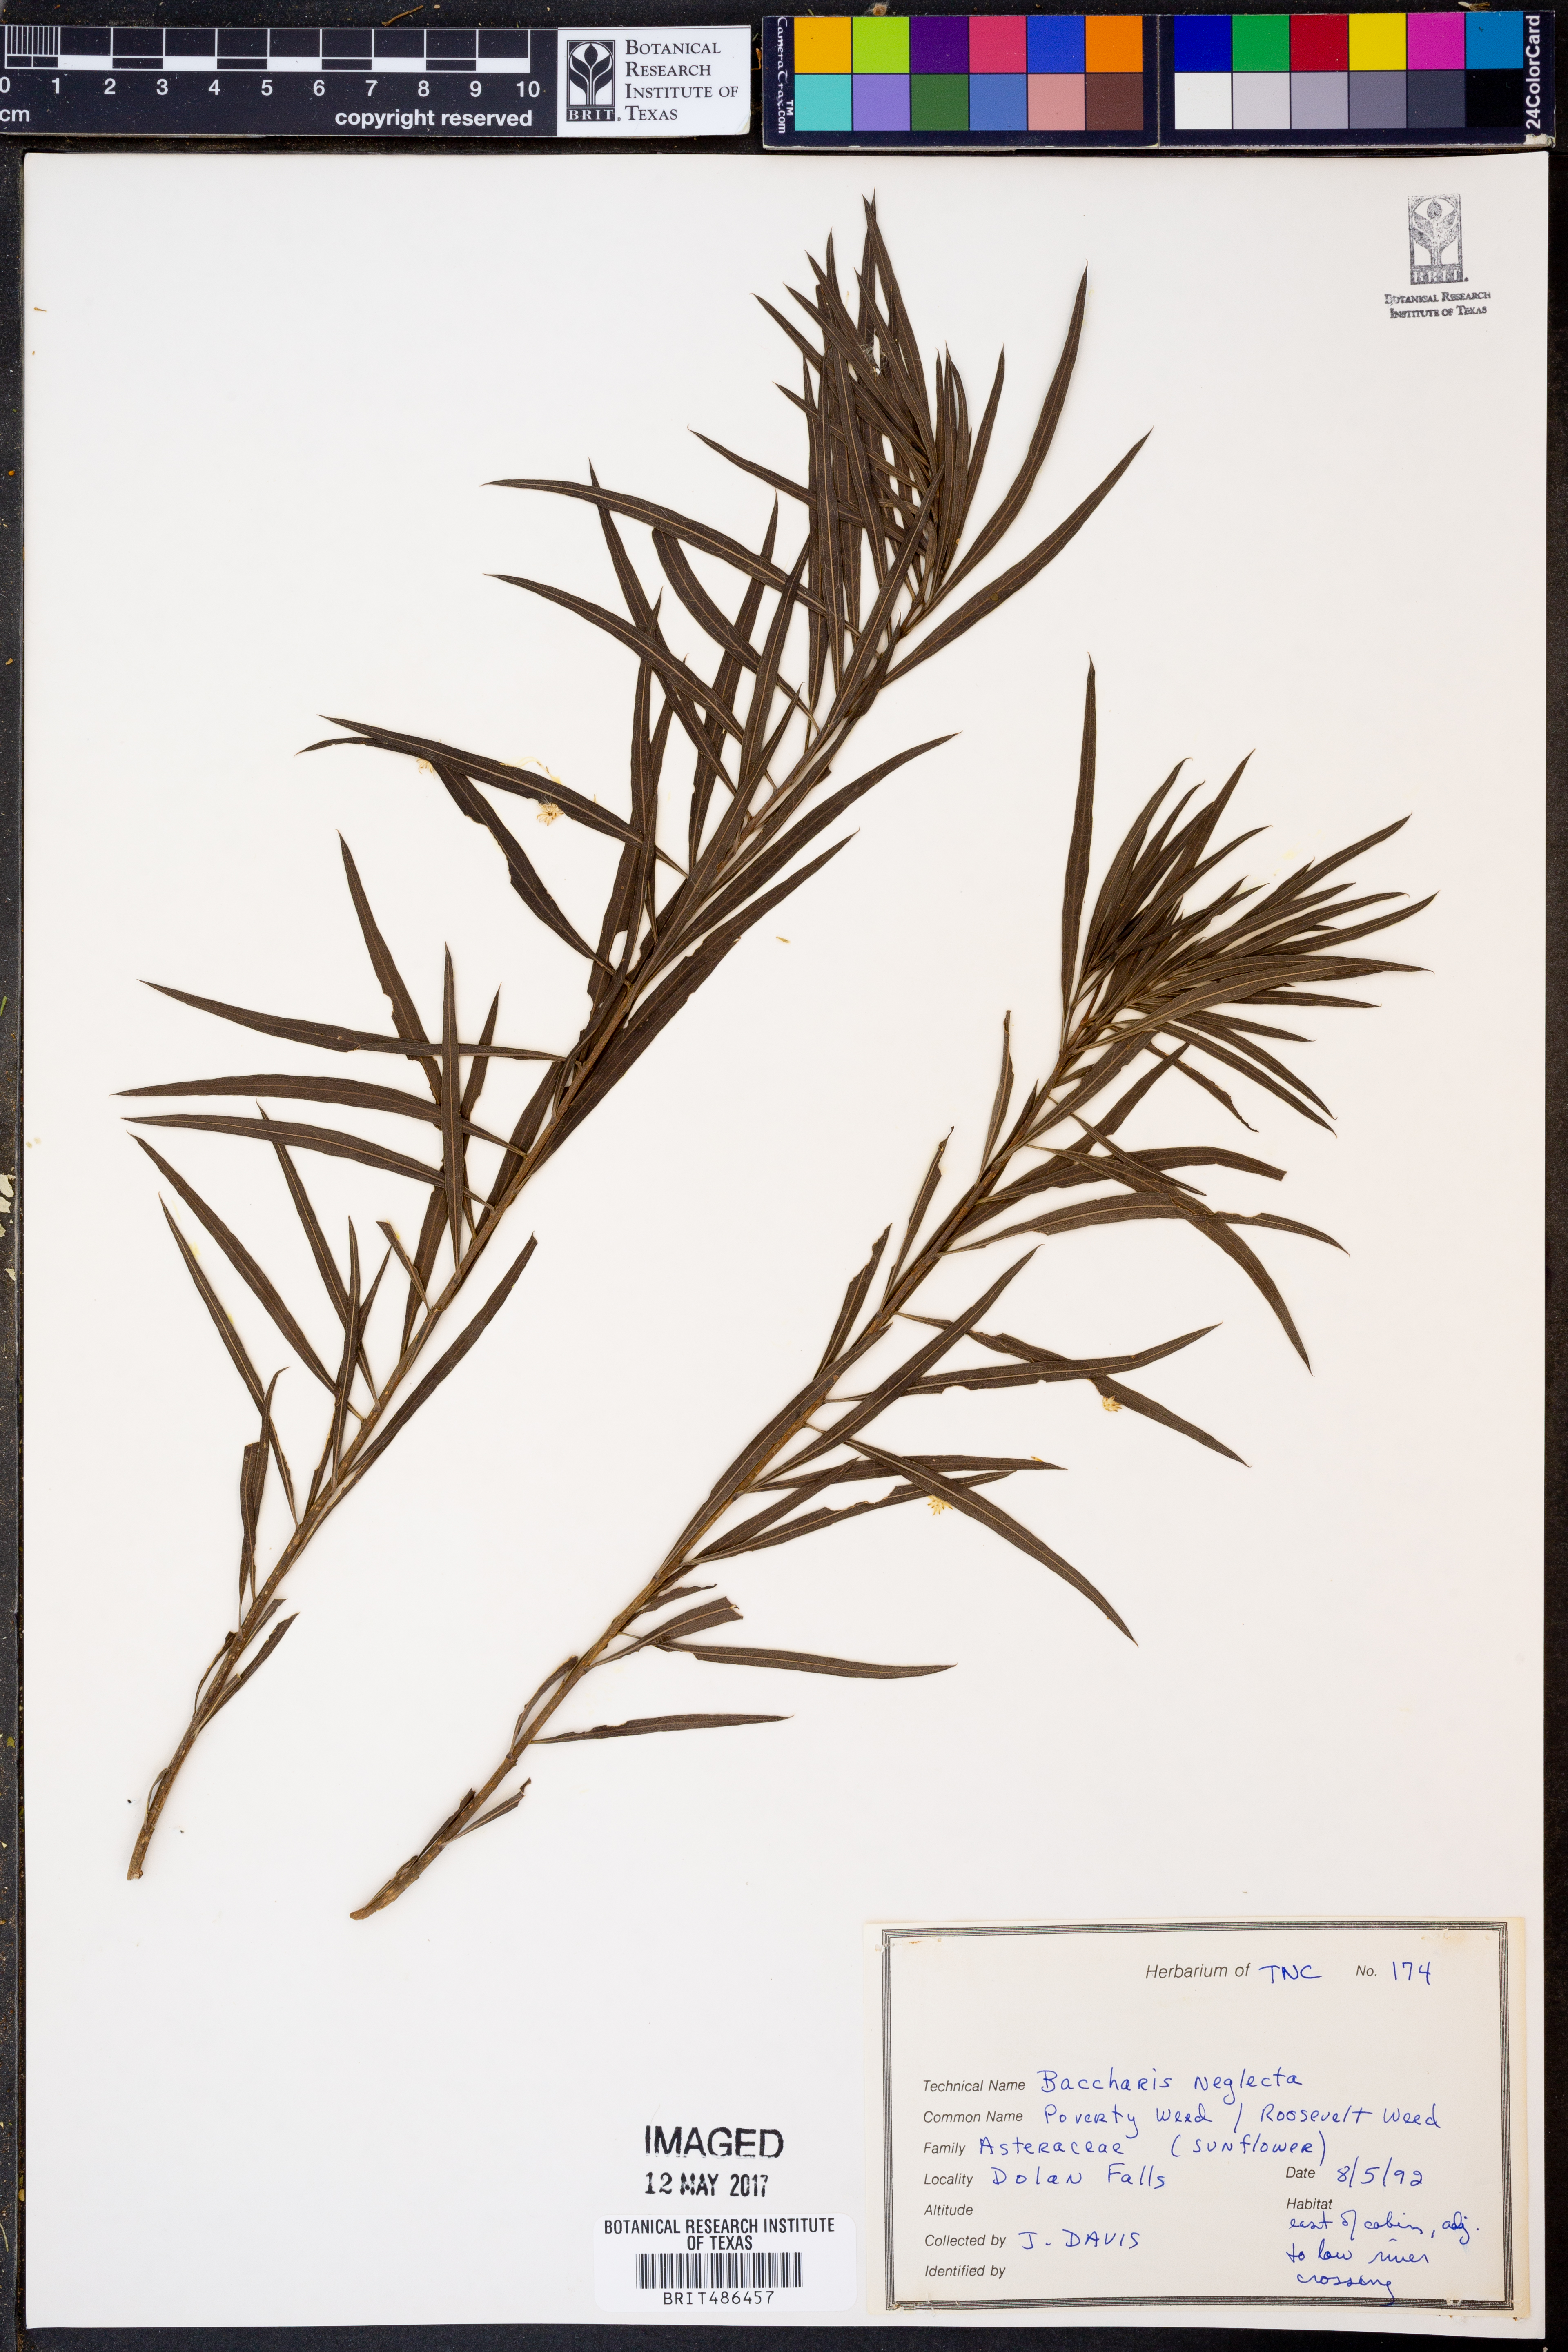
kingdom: Plantae
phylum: Tracheophyta
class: Magnoliopsida
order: Asterales
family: Asteraceae
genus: Baccharis
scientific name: Baccharis neglecta
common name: Roosevelt-weed
